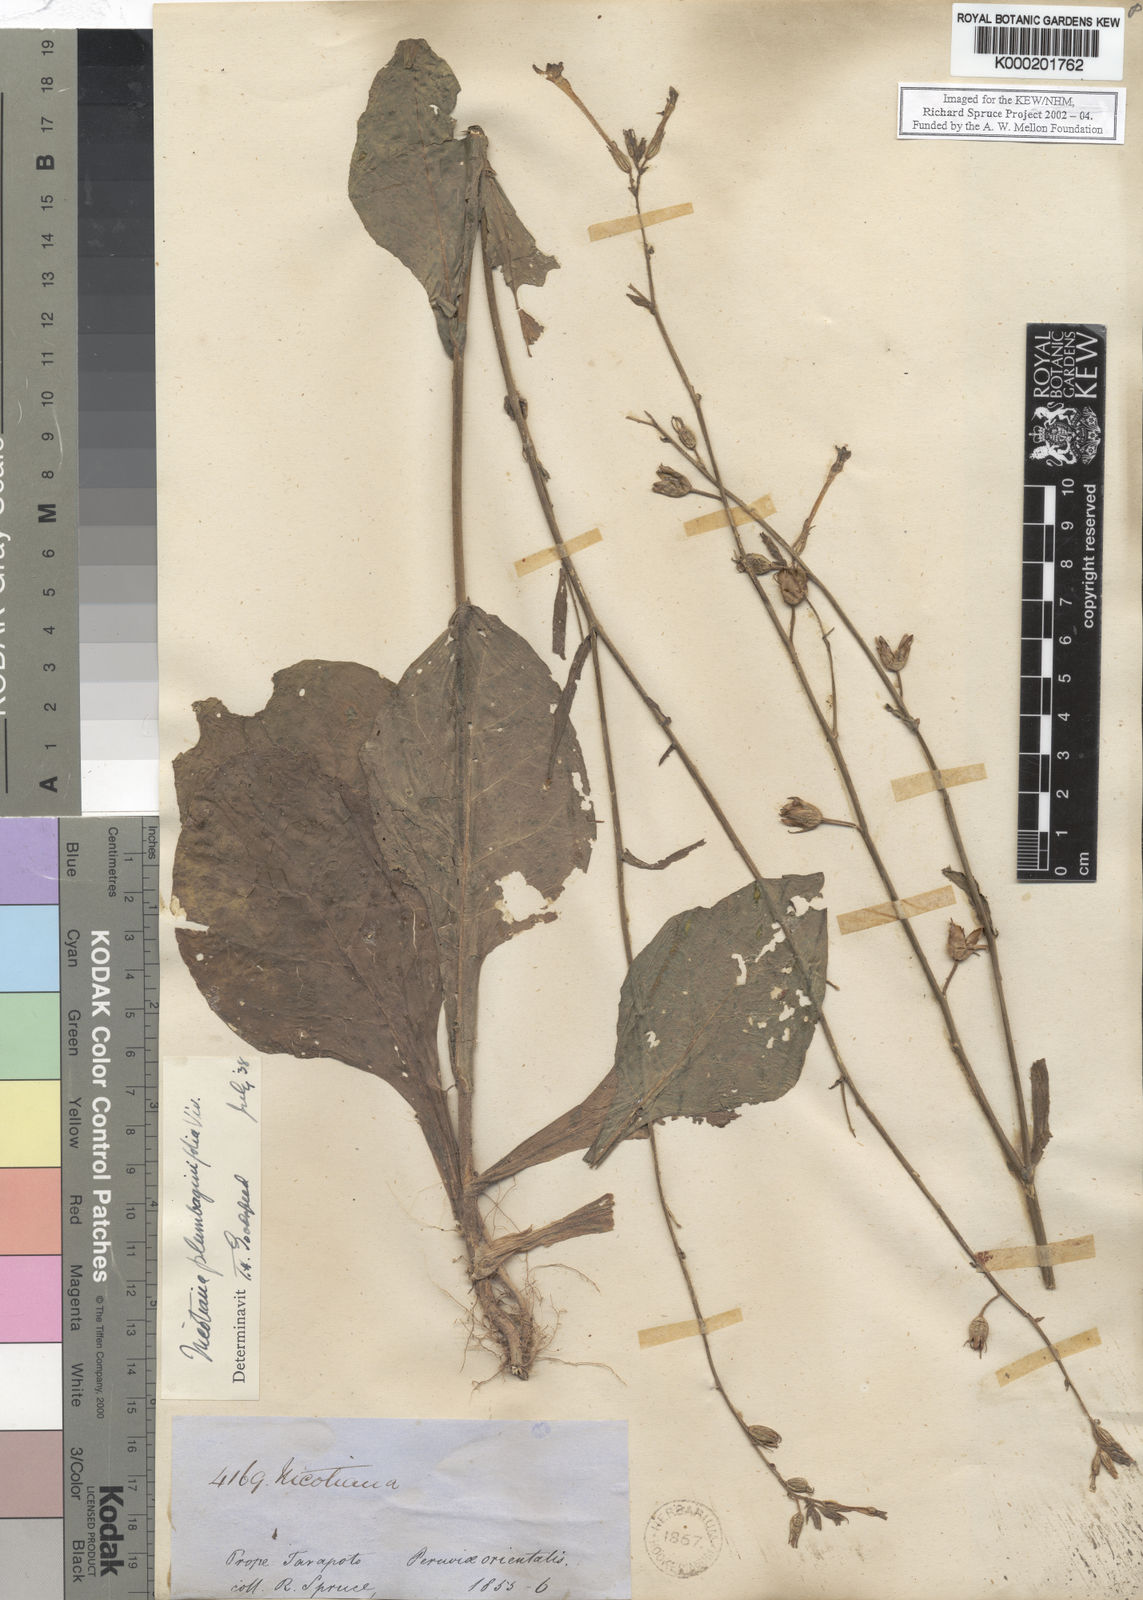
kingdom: Plantae
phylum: Tracheophyta
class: Magnoliopsida
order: Solanales
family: Solanaceae
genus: Nicotiana
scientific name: Nicotiana plumbaginifolia
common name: Tex-mex tobacco
